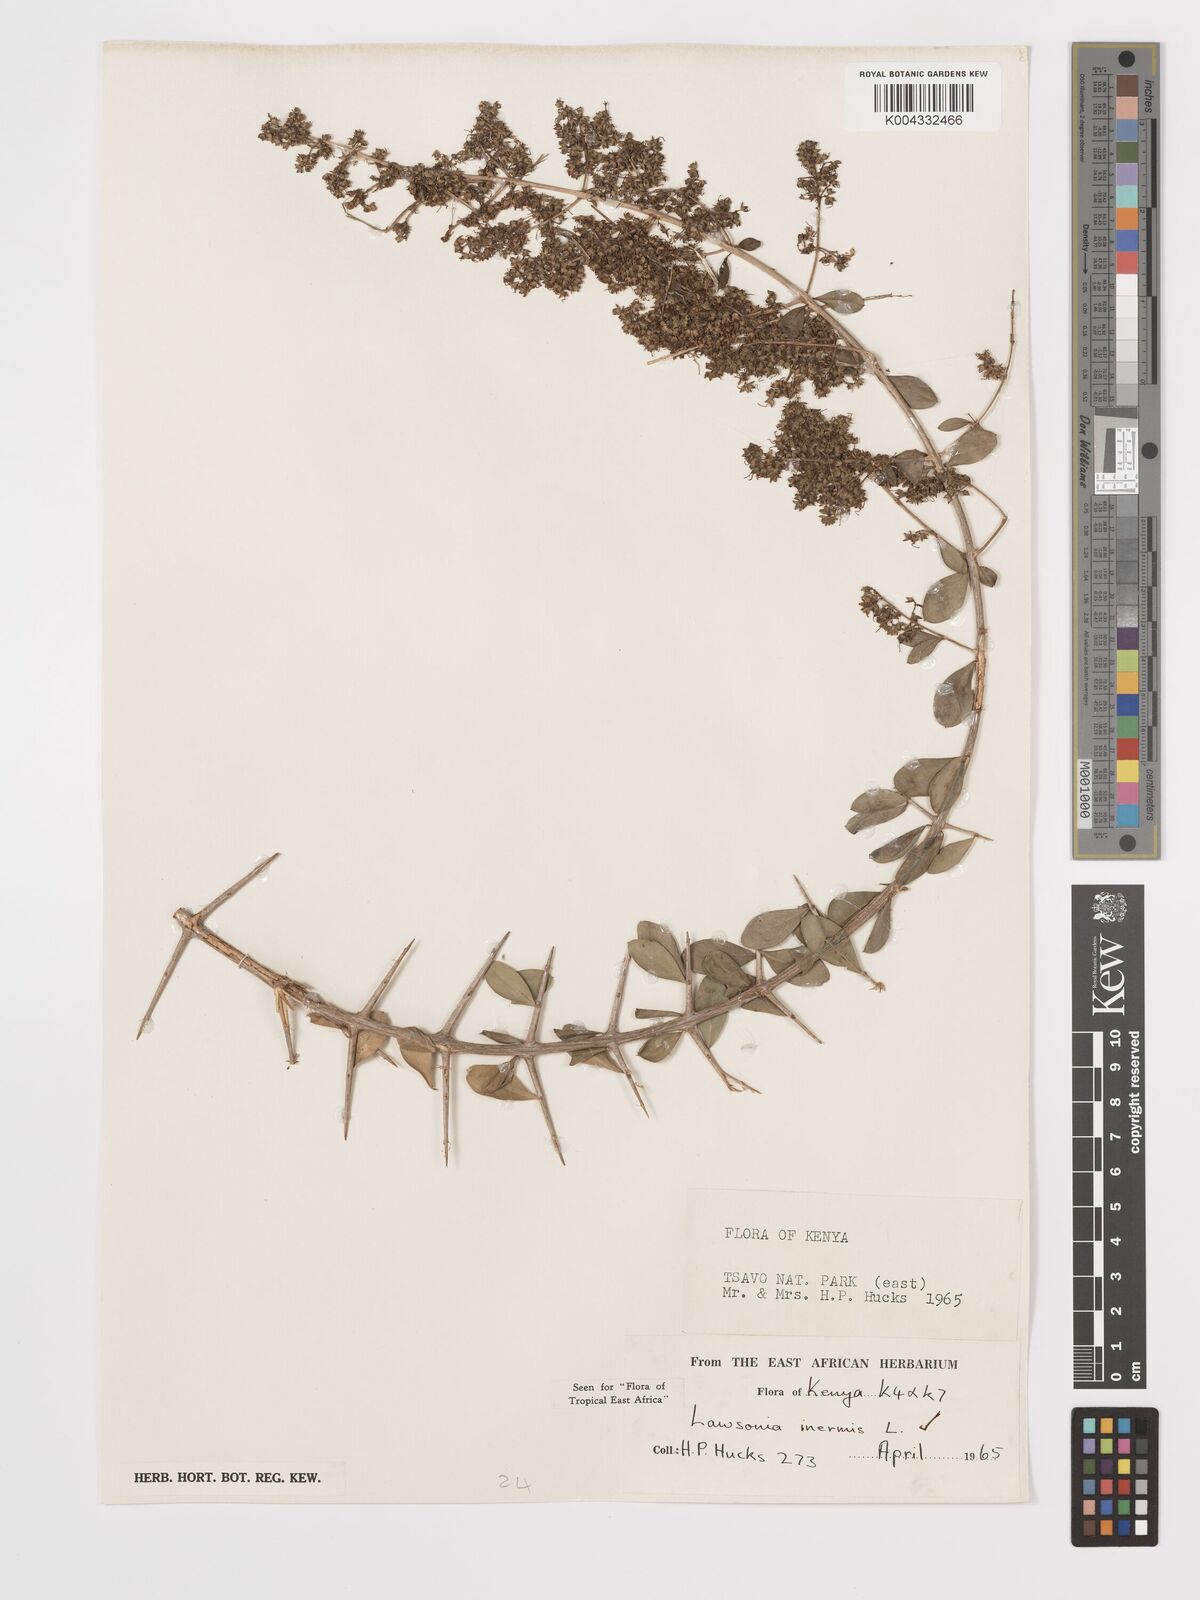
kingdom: Plantae
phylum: Tracheophyta
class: Magnoliopsida
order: Myrtales
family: Lythraceae
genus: Lawsonia
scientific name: Lawsonia inermis
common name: Henna
